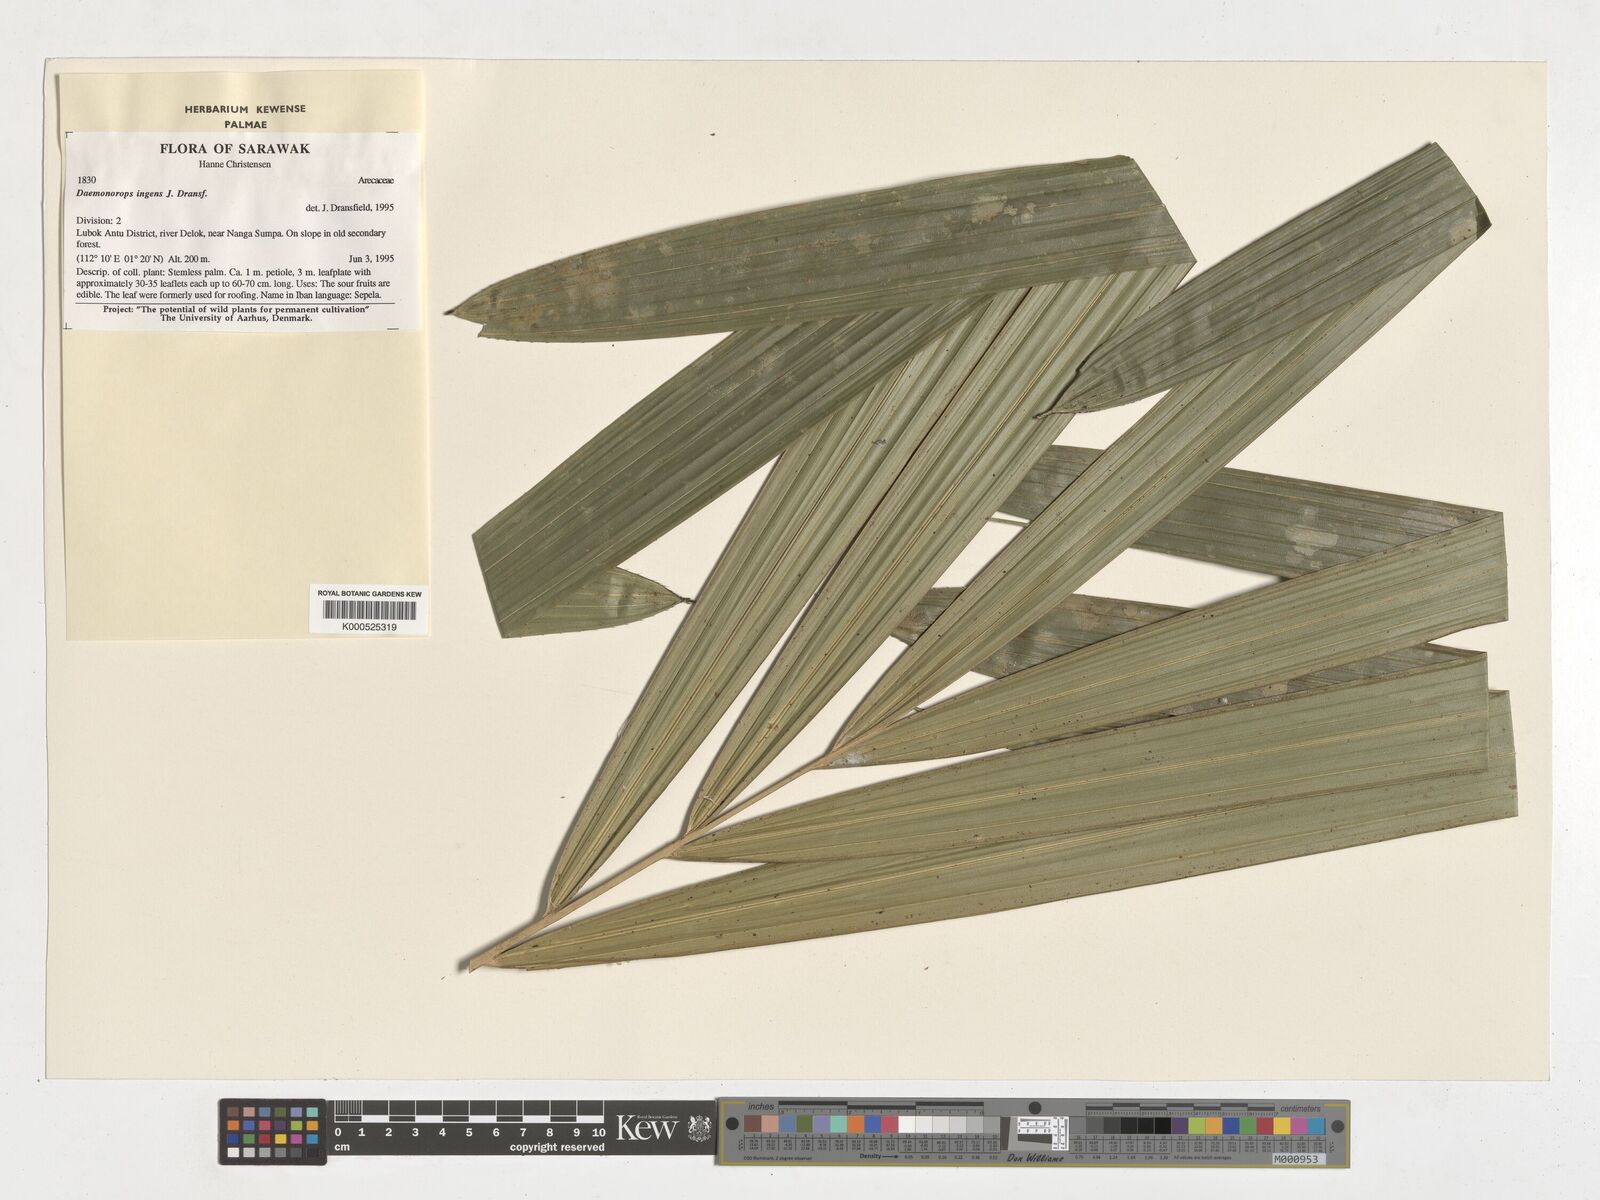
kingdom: Plantae
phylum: Tracheophyta
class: Liliopsida
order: Arecales
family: Arecaceae
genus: Calamus
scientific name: Calamus ingens
